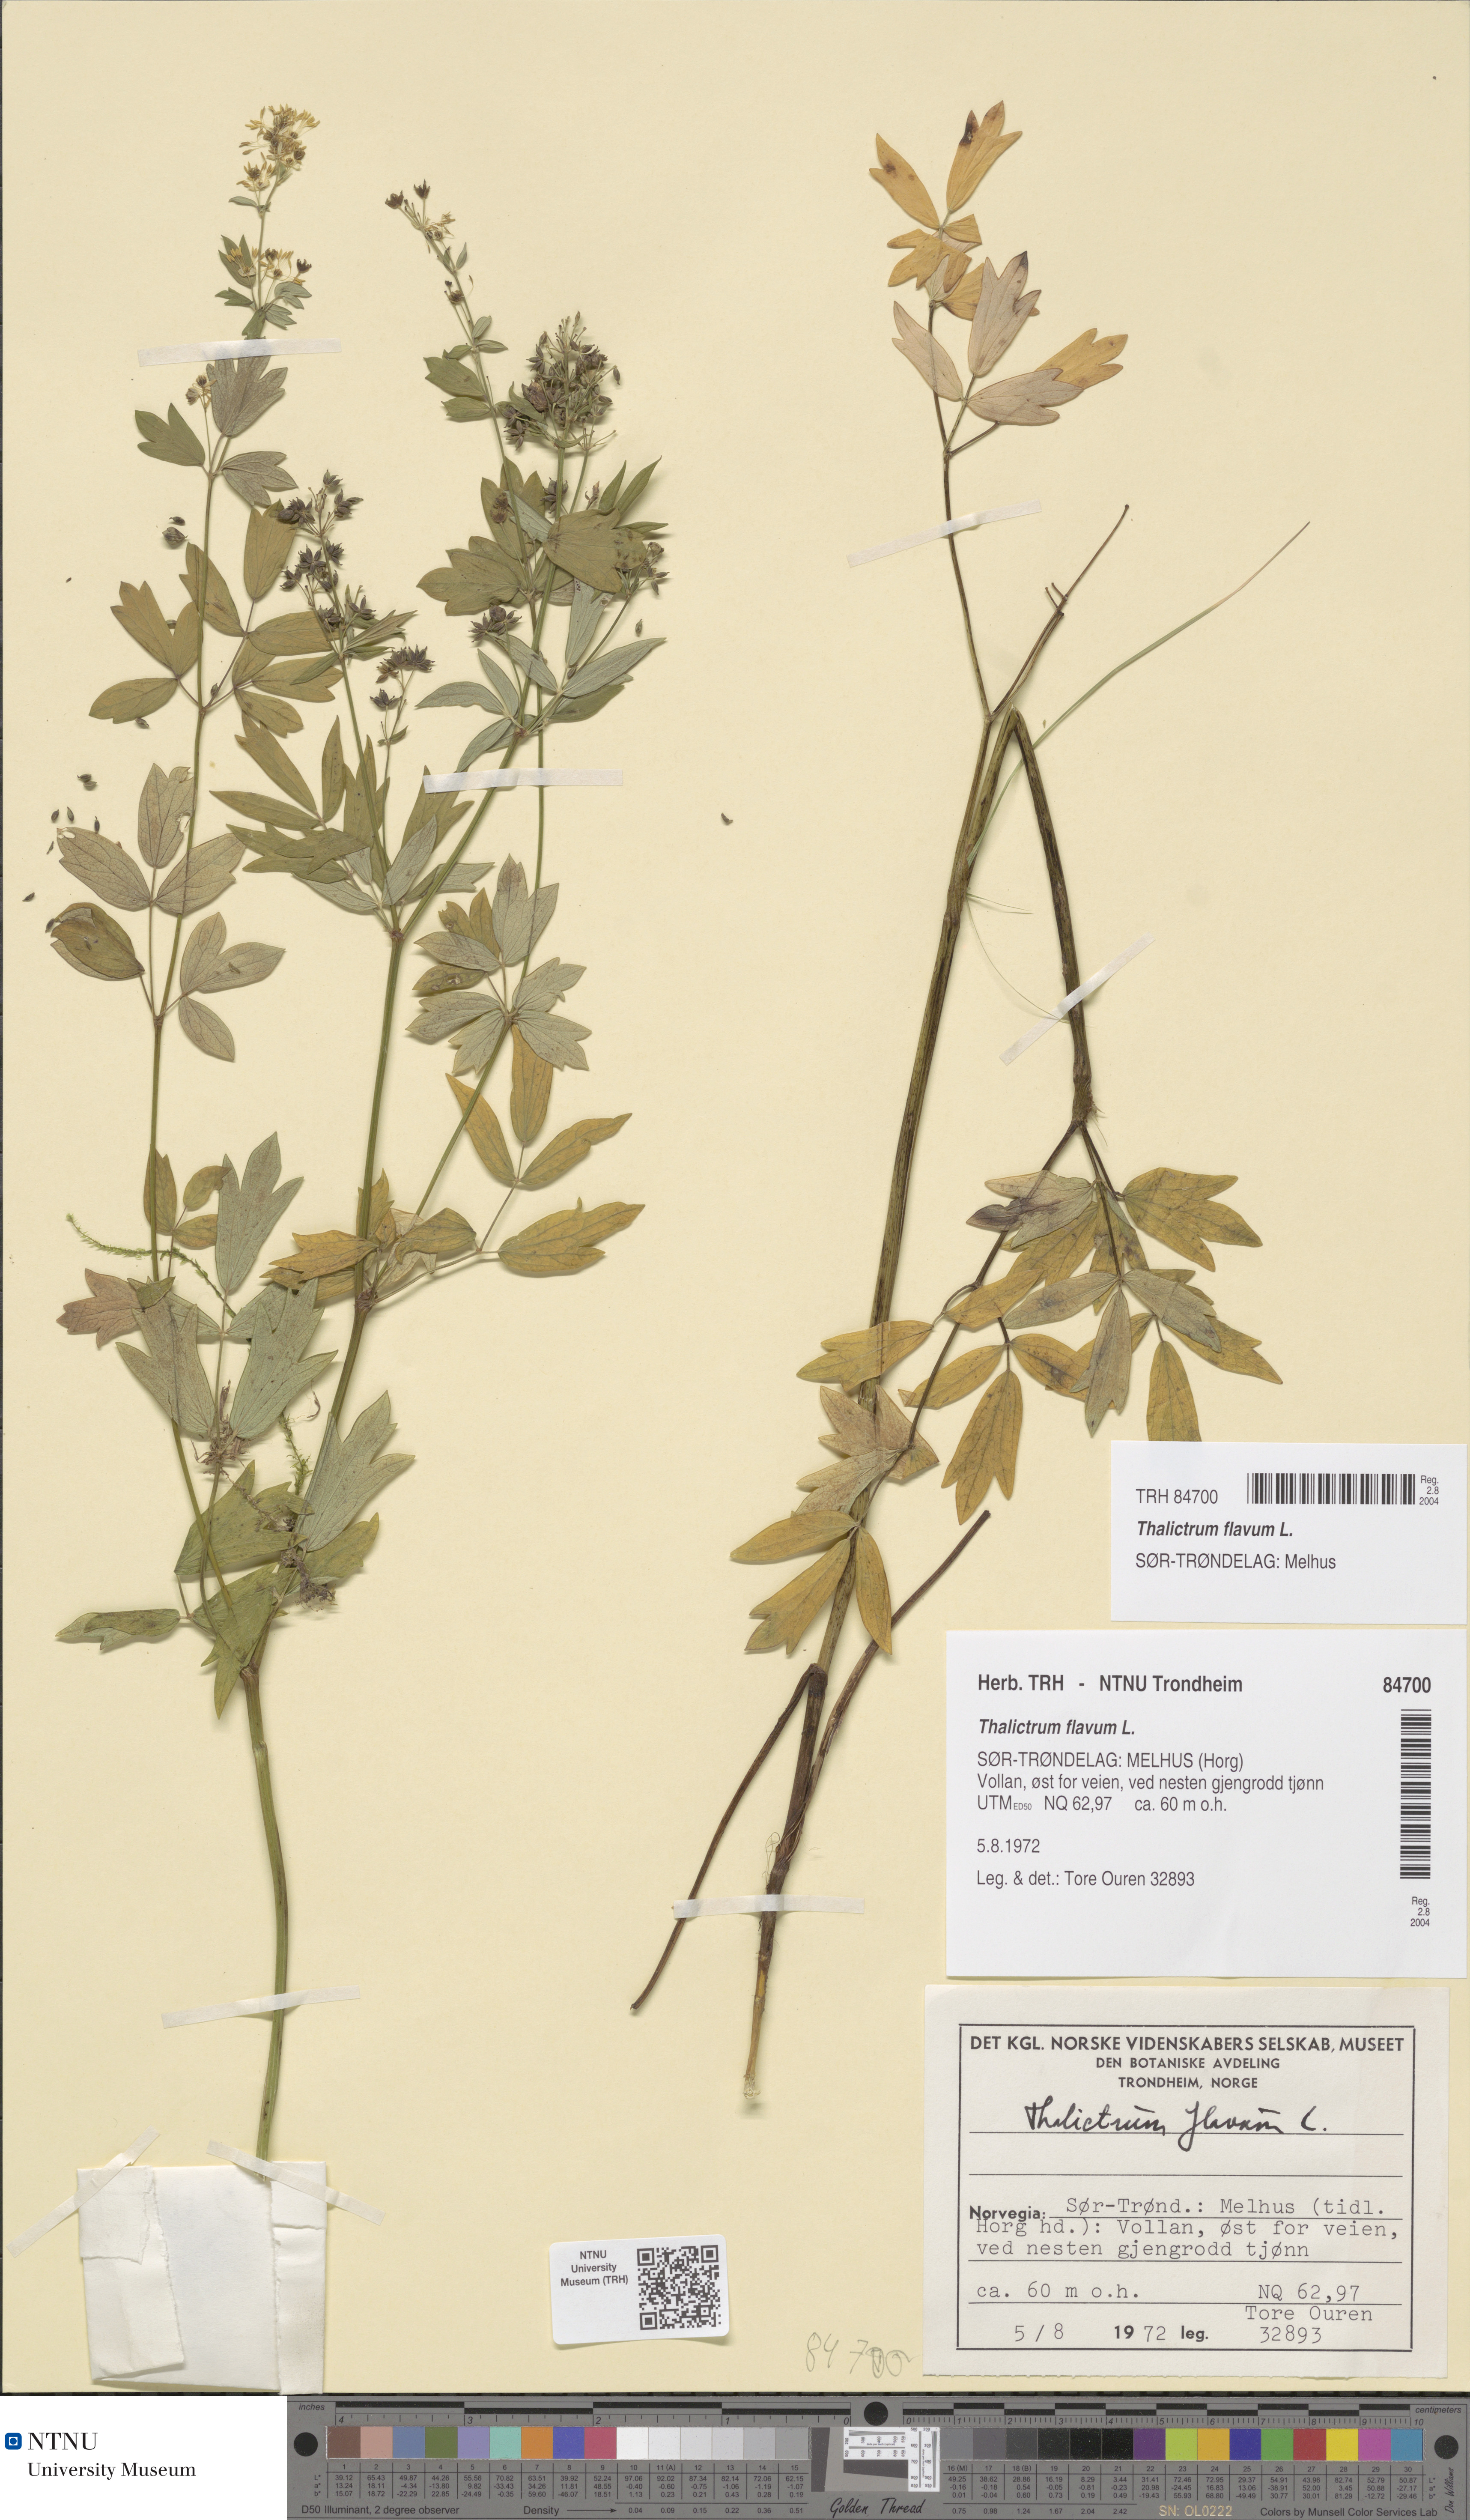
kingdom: Plantae
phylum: Tracheophyta
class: Magnoliopsida
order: Ranunculales
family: Ranunculaceae
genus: Thalictrum
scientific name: Thalictrum flavum
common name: Common meadow-rue
